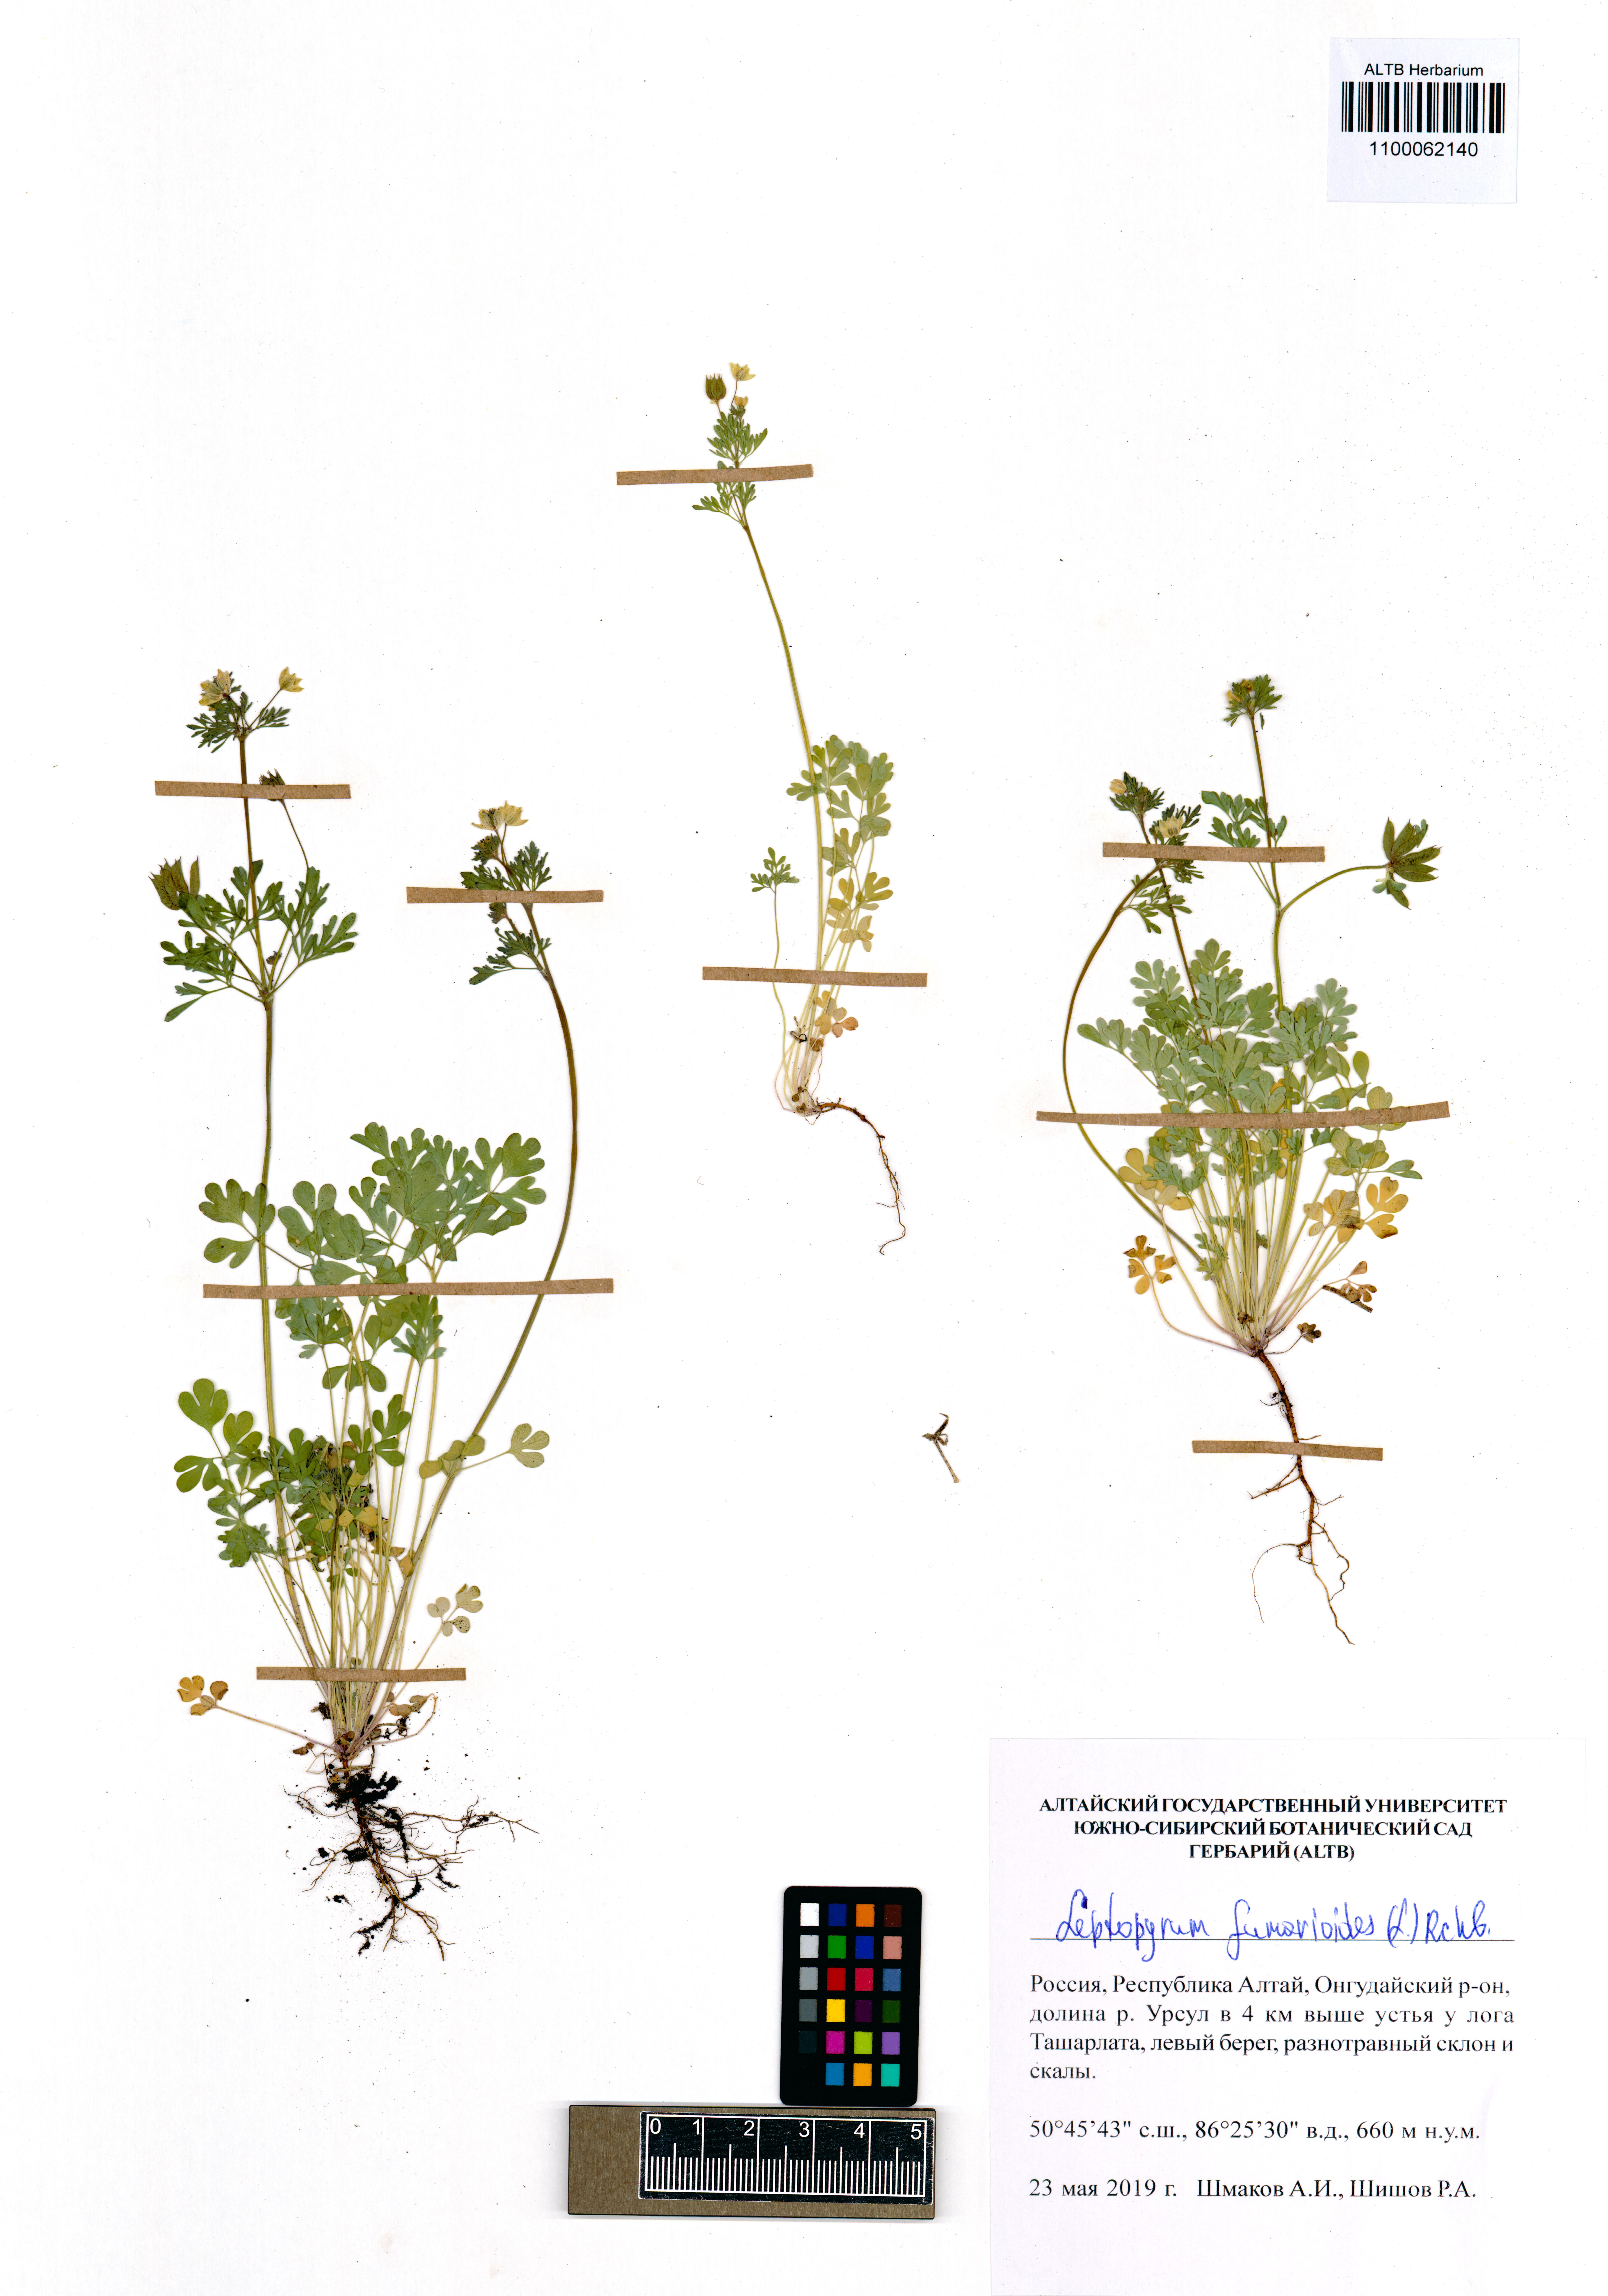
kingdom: Plantae
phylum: Tracheophyta
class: Magnoliopsida
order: Ranunculales
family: Ranunculaceae
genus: Leptopyrum
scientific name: Leptopyrum fumarioides
